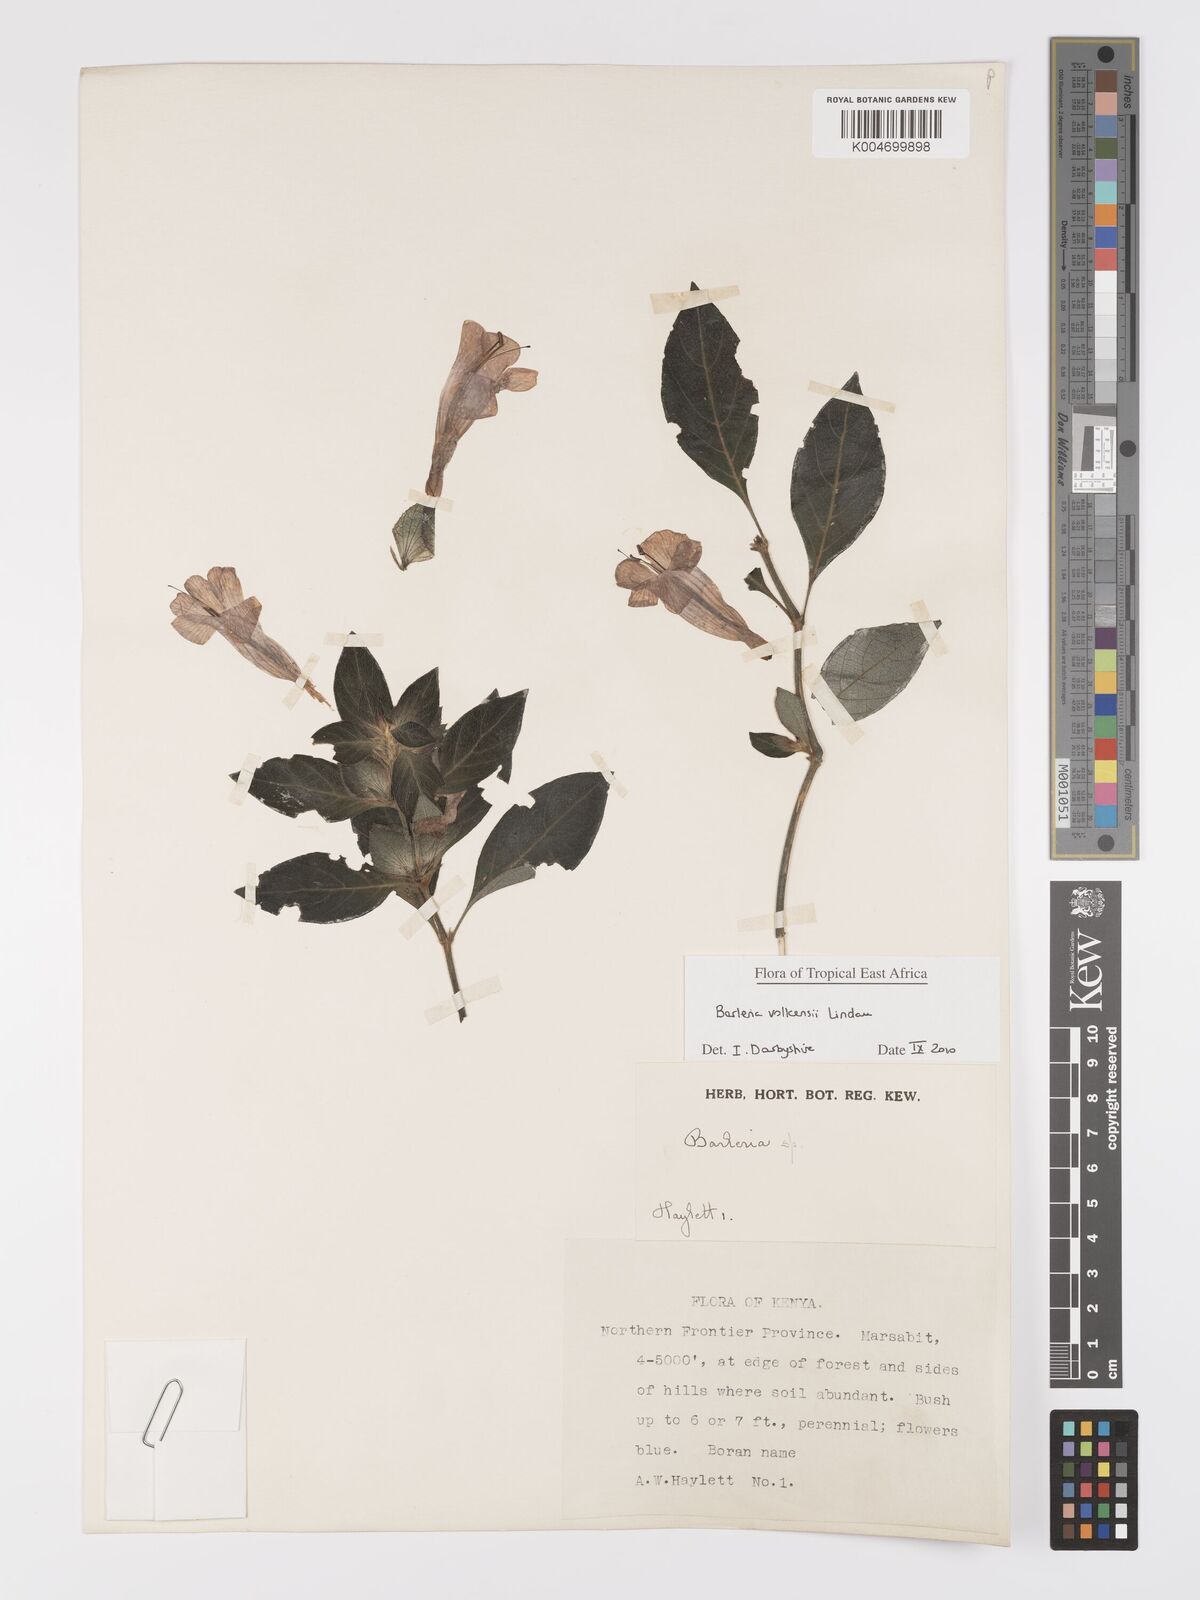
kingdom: Plantae
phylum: Tracheophyta
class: Magnoliopsida
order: Lamiales
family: Acanthaceae
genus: Barleria
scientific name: Barleria volkensii
